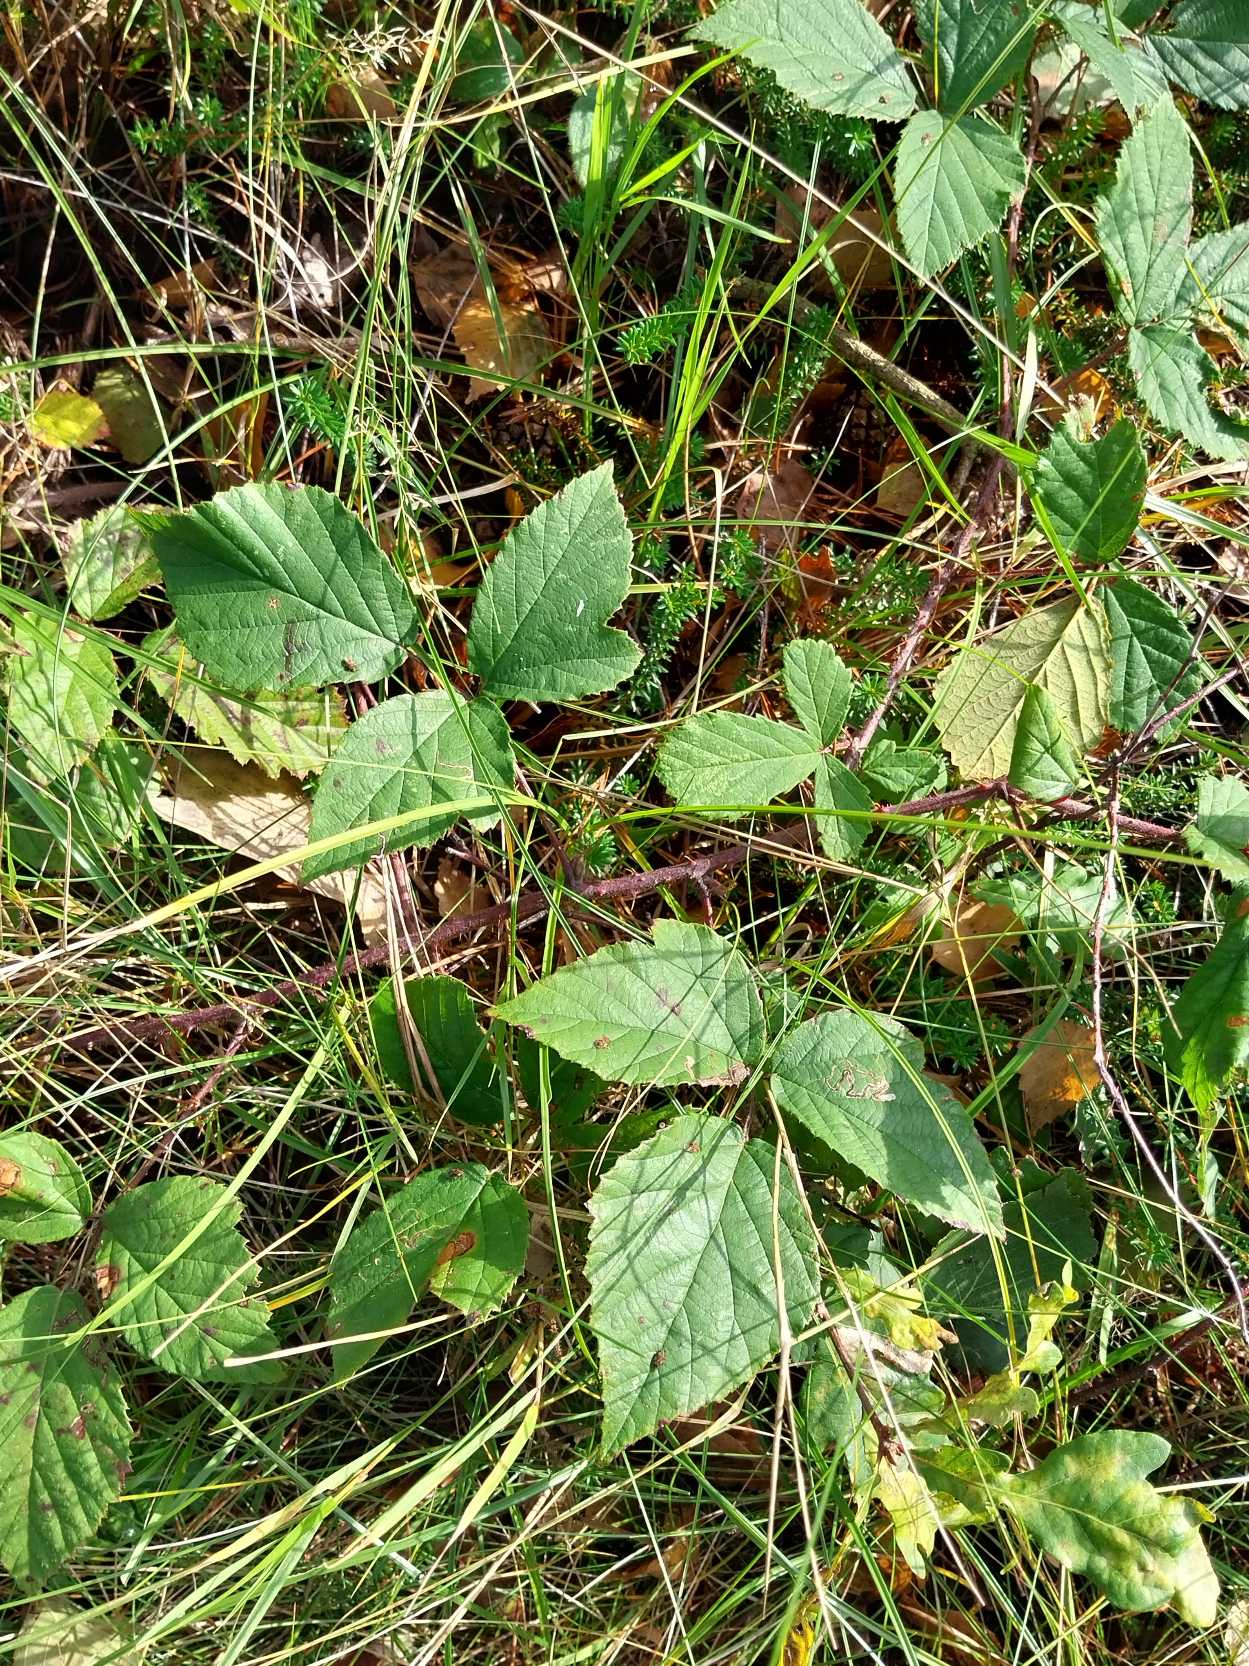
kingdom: Plantae
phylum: Tracheophyta
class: Magnoliopsida
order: Rosales
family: Rosaceae
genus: Rubus
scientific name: Rubus radula
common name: Rasperu brombær
